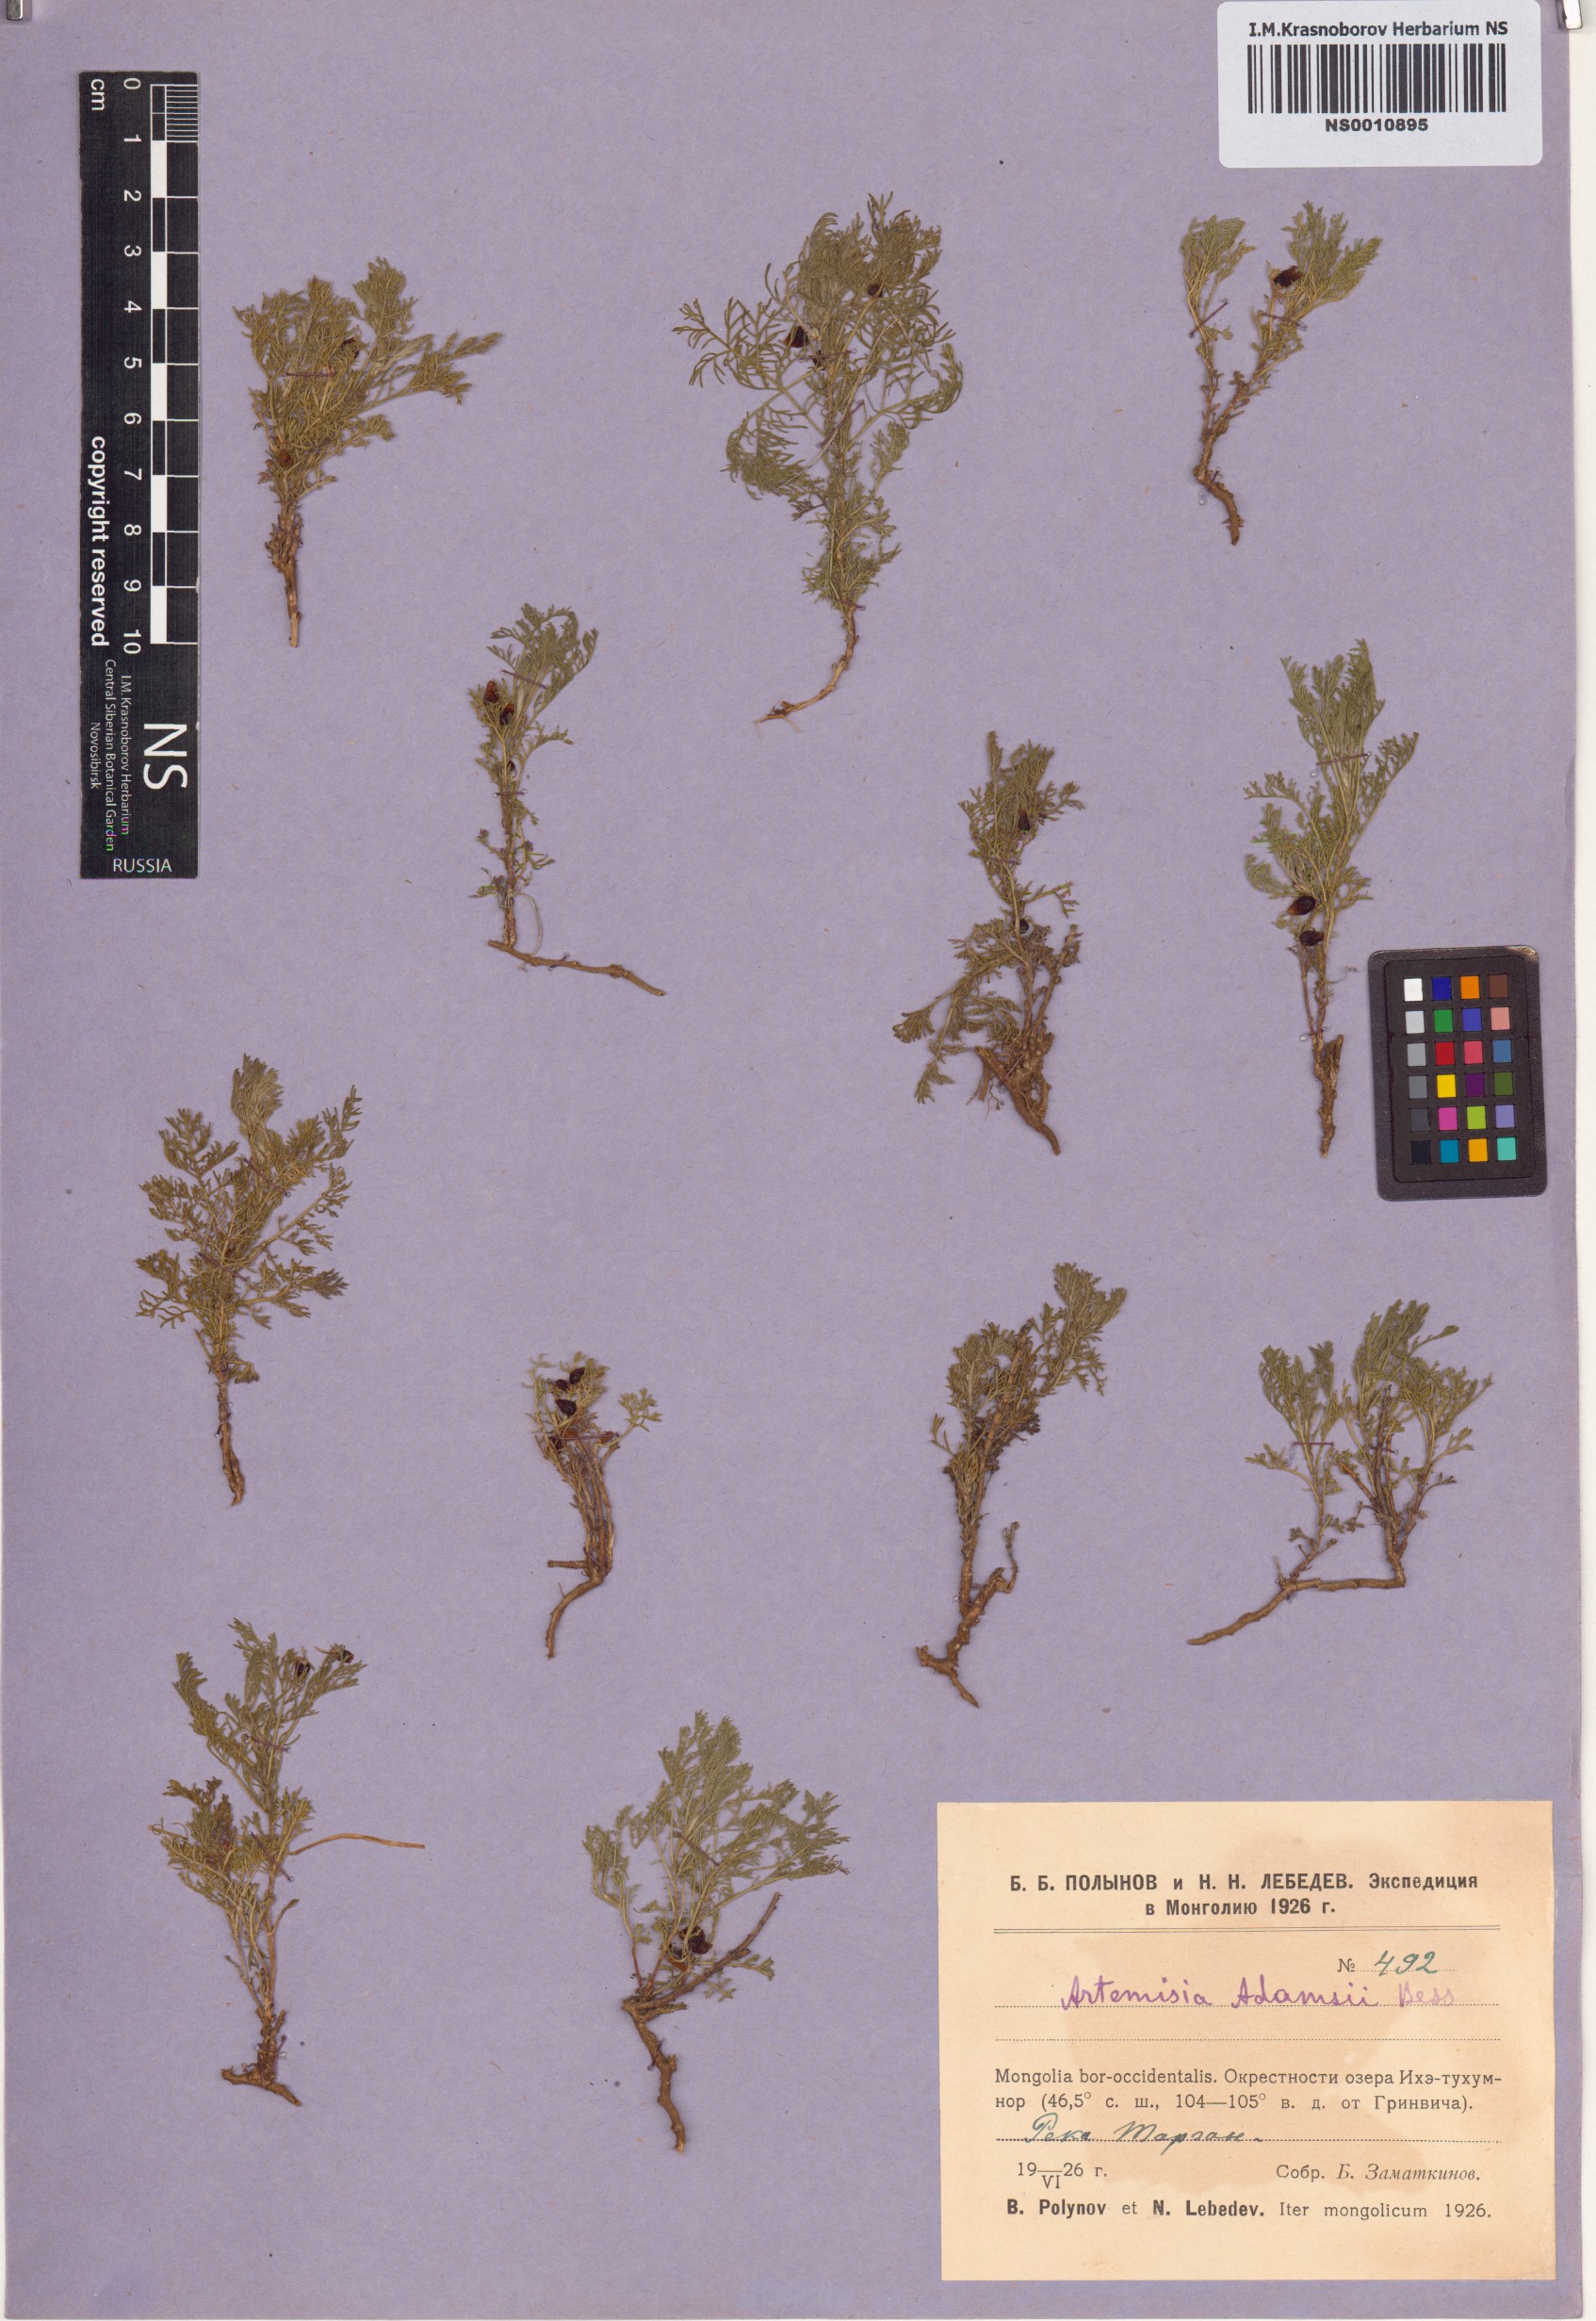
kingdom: Plantae
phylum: Tracheophyta
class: Magnoliopsida
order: Asterales
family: Asteraceae
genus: Artemisia
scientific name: Artemisia adamsii
